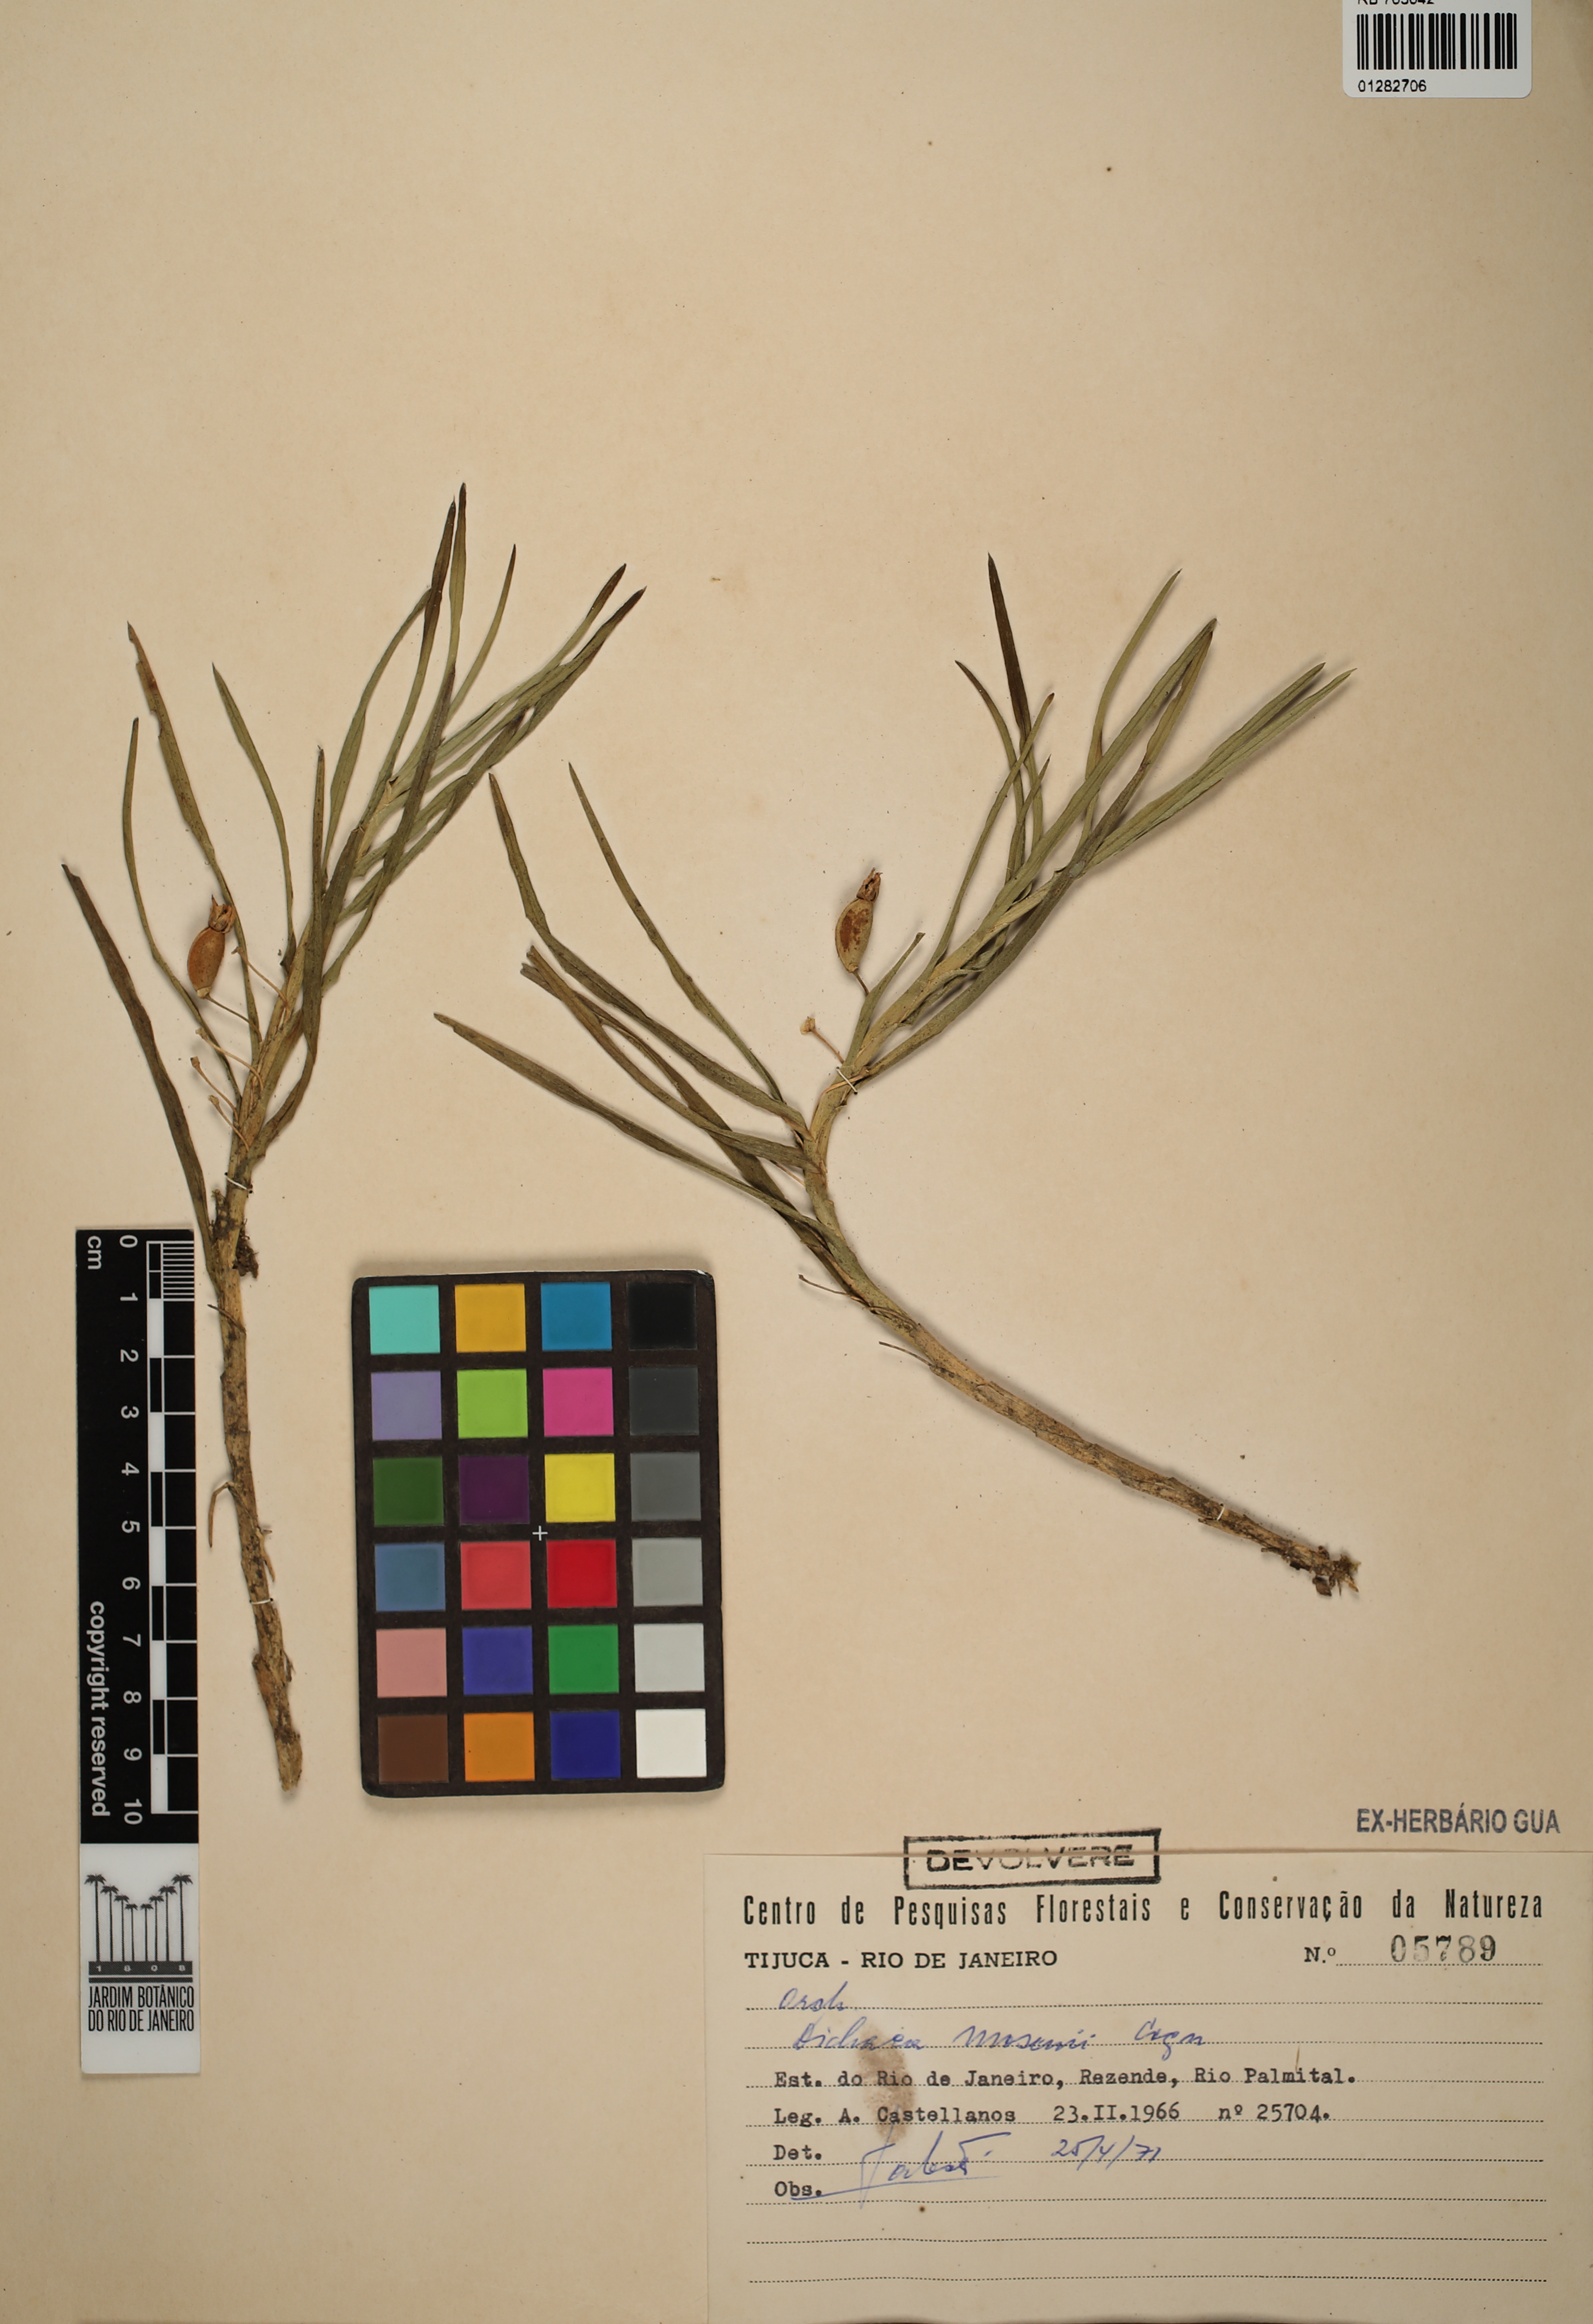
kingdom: Plantae
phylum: Tracheophyta
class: Liliopsida
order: Asparagales
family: Orchidaceae
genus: Dichaea
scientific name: Dichaea mosenii
